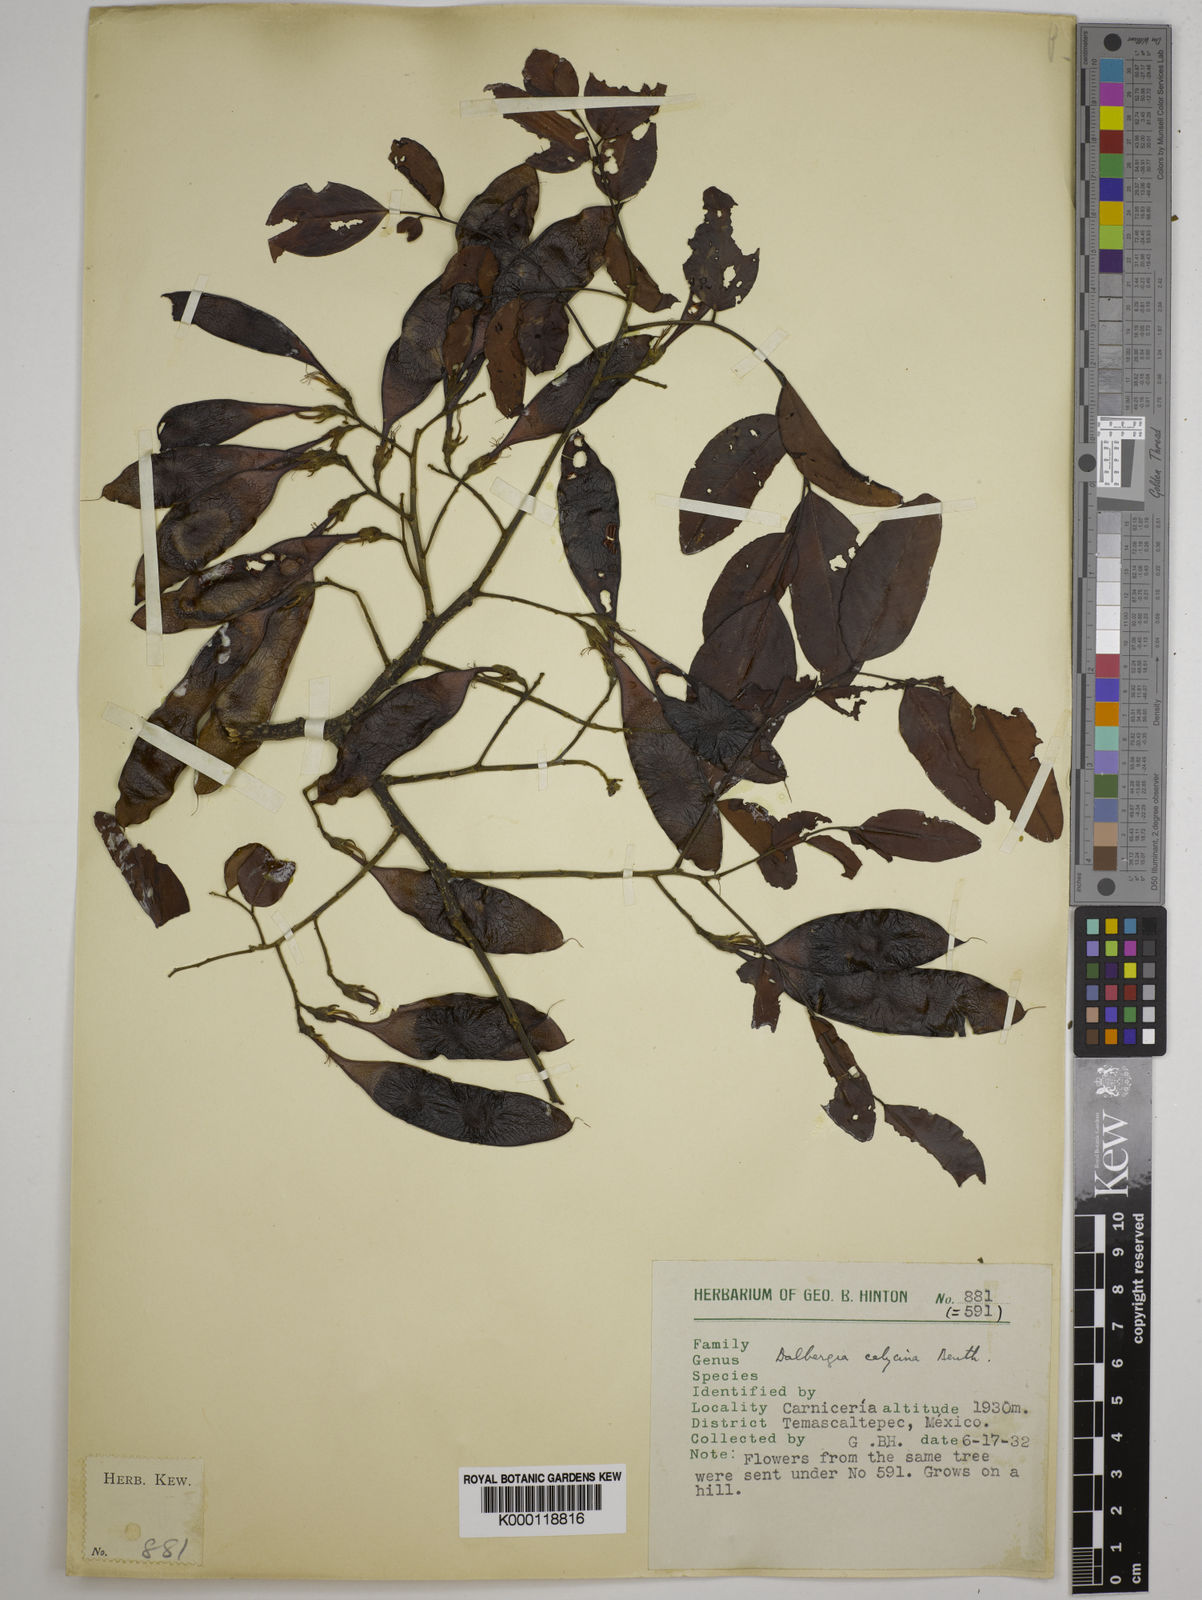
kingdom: Plantae
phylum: Tracheophyta
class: Magnoliopsida
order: Fabales
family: Fabaceae
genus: Dalbergia
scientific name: Dalbergia calycina
